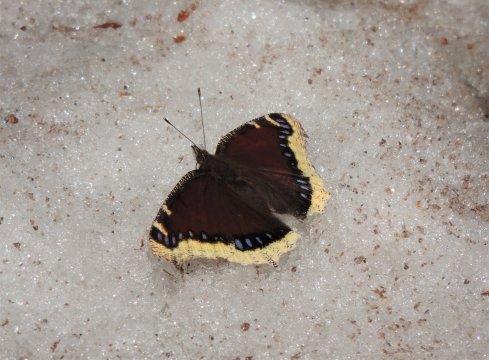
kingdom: Animalia
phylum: Arthropoda
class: Insecta
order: Lepidoptera
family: Nymphalidae
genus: Nymphalis
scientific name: Nymphalis antiopa
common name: Mourning Cloak
